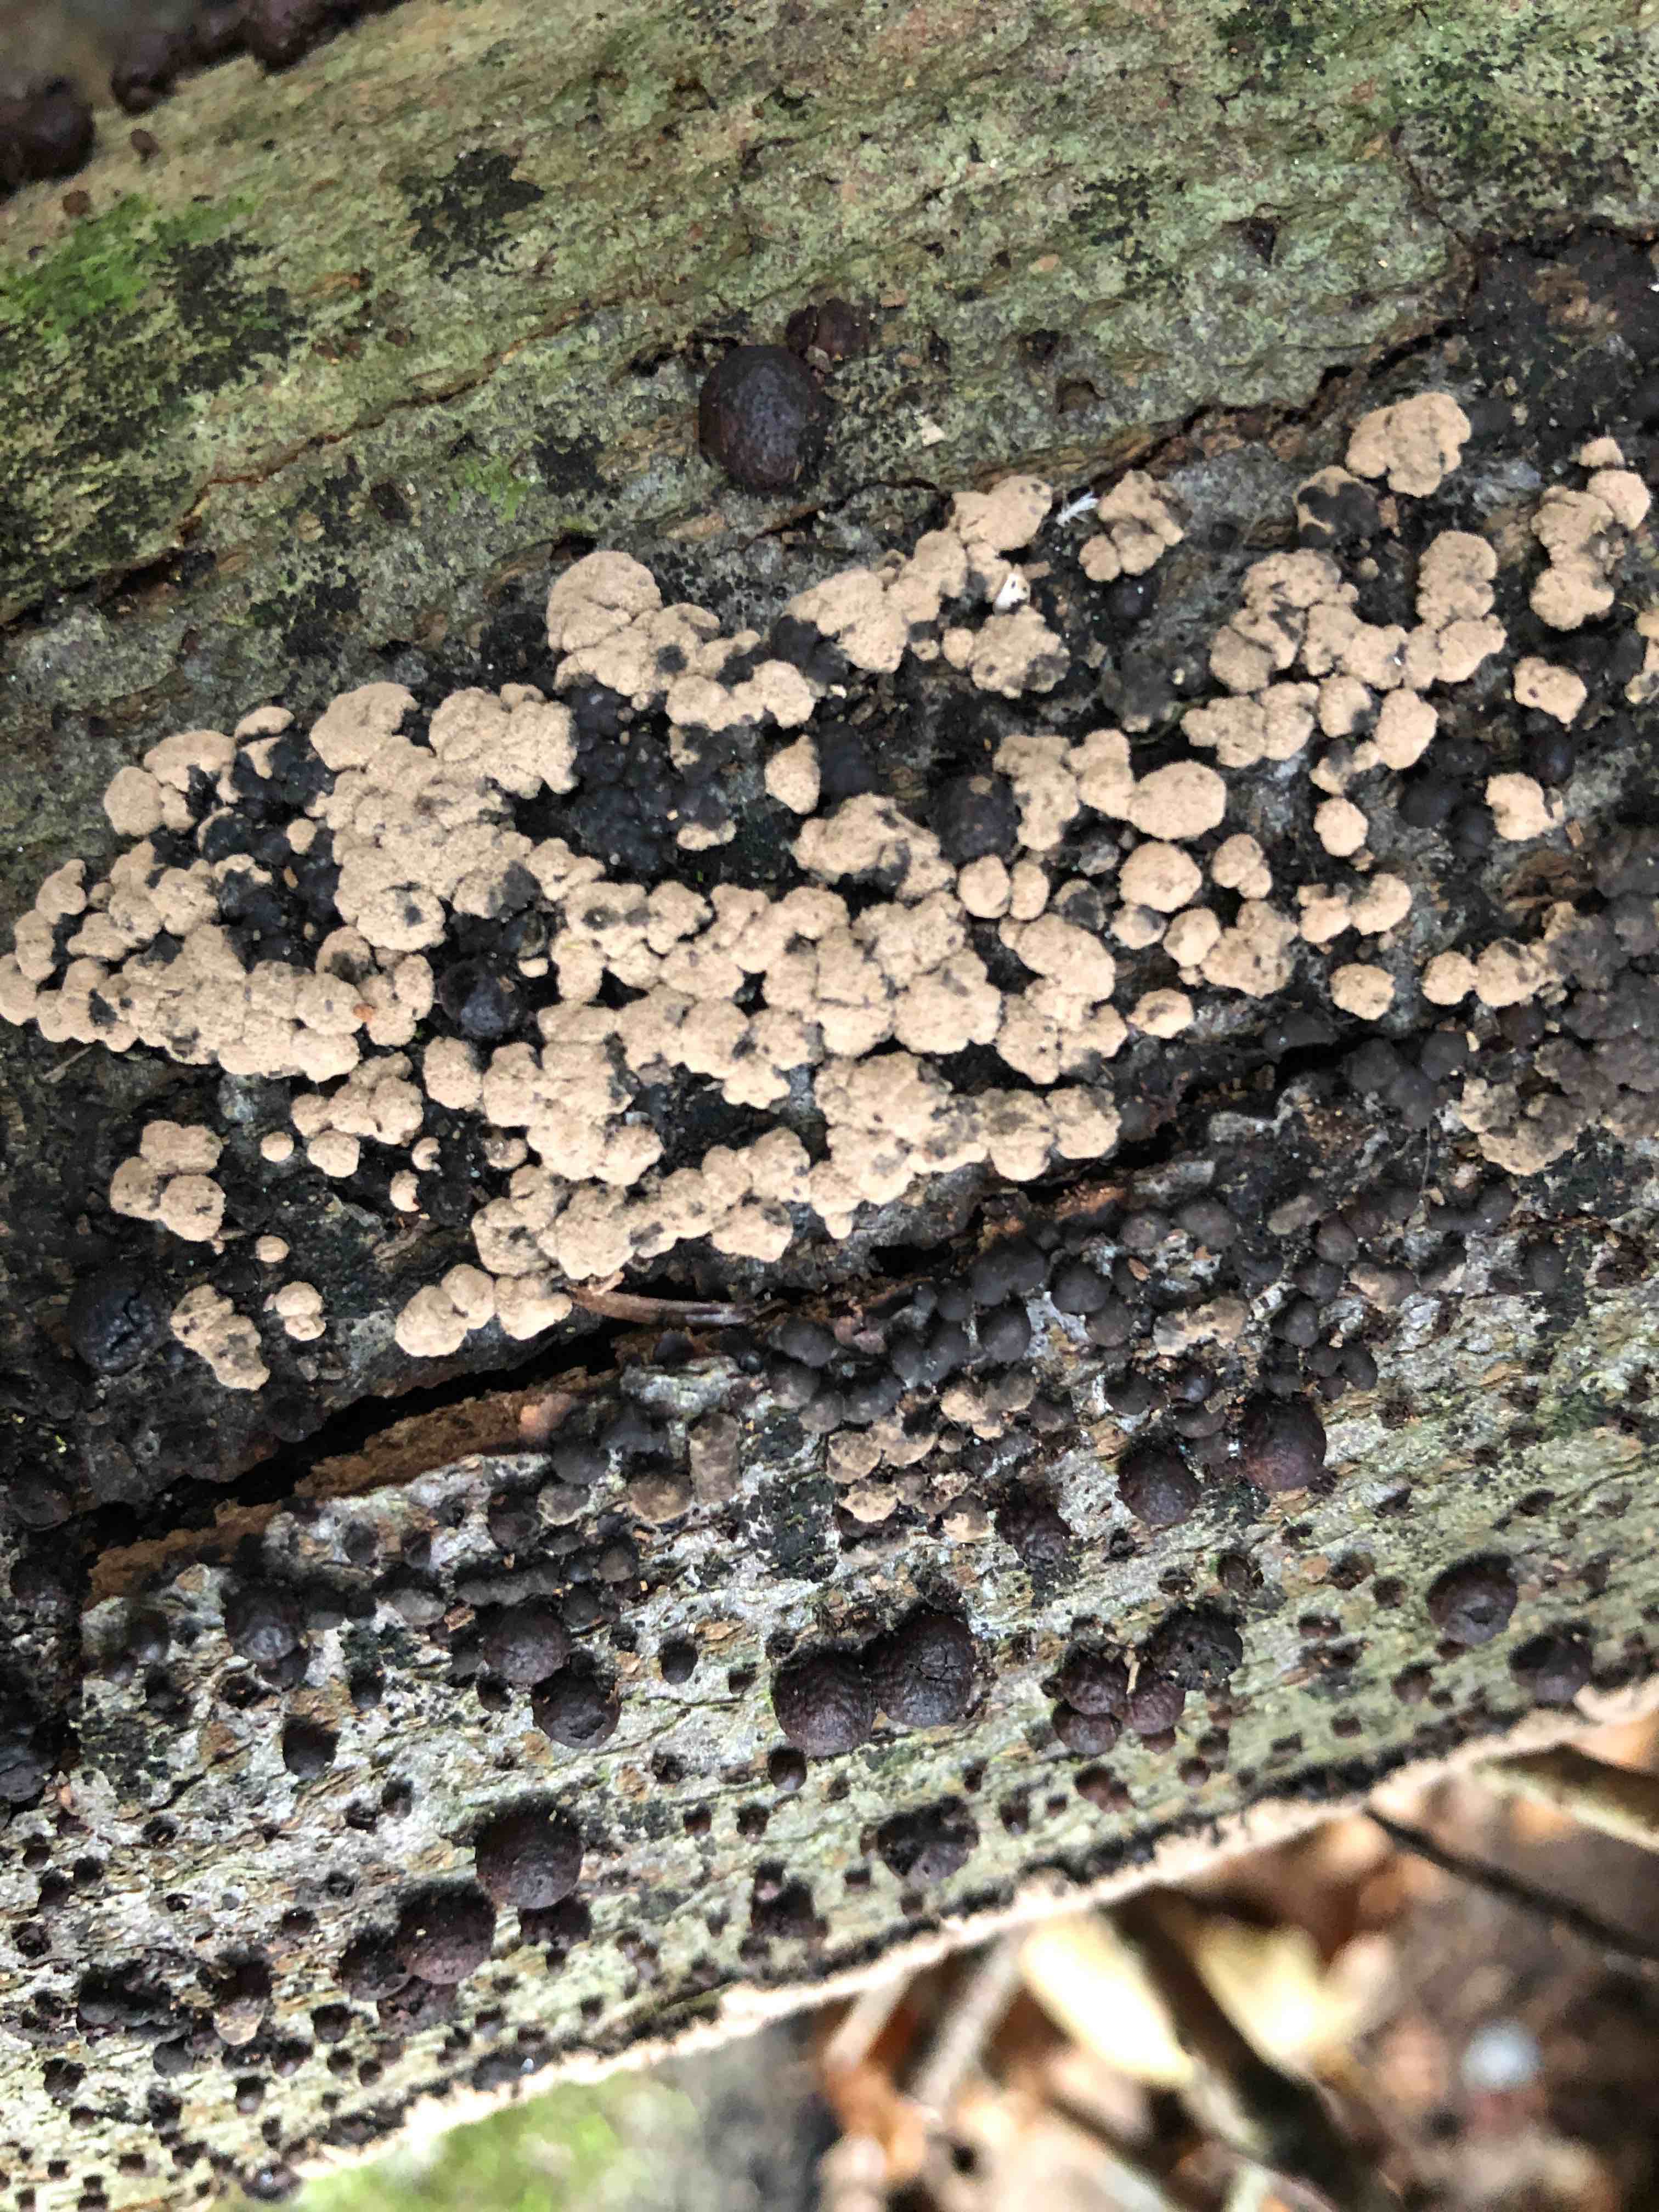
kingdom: Fungi
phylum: Ascomycota
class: Sordariomycetes
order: Xylariales
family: Hypoxylaceae
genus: Jackrogersella
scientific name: Jackrogersella cohaerens
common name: sammenflydende kulbær
